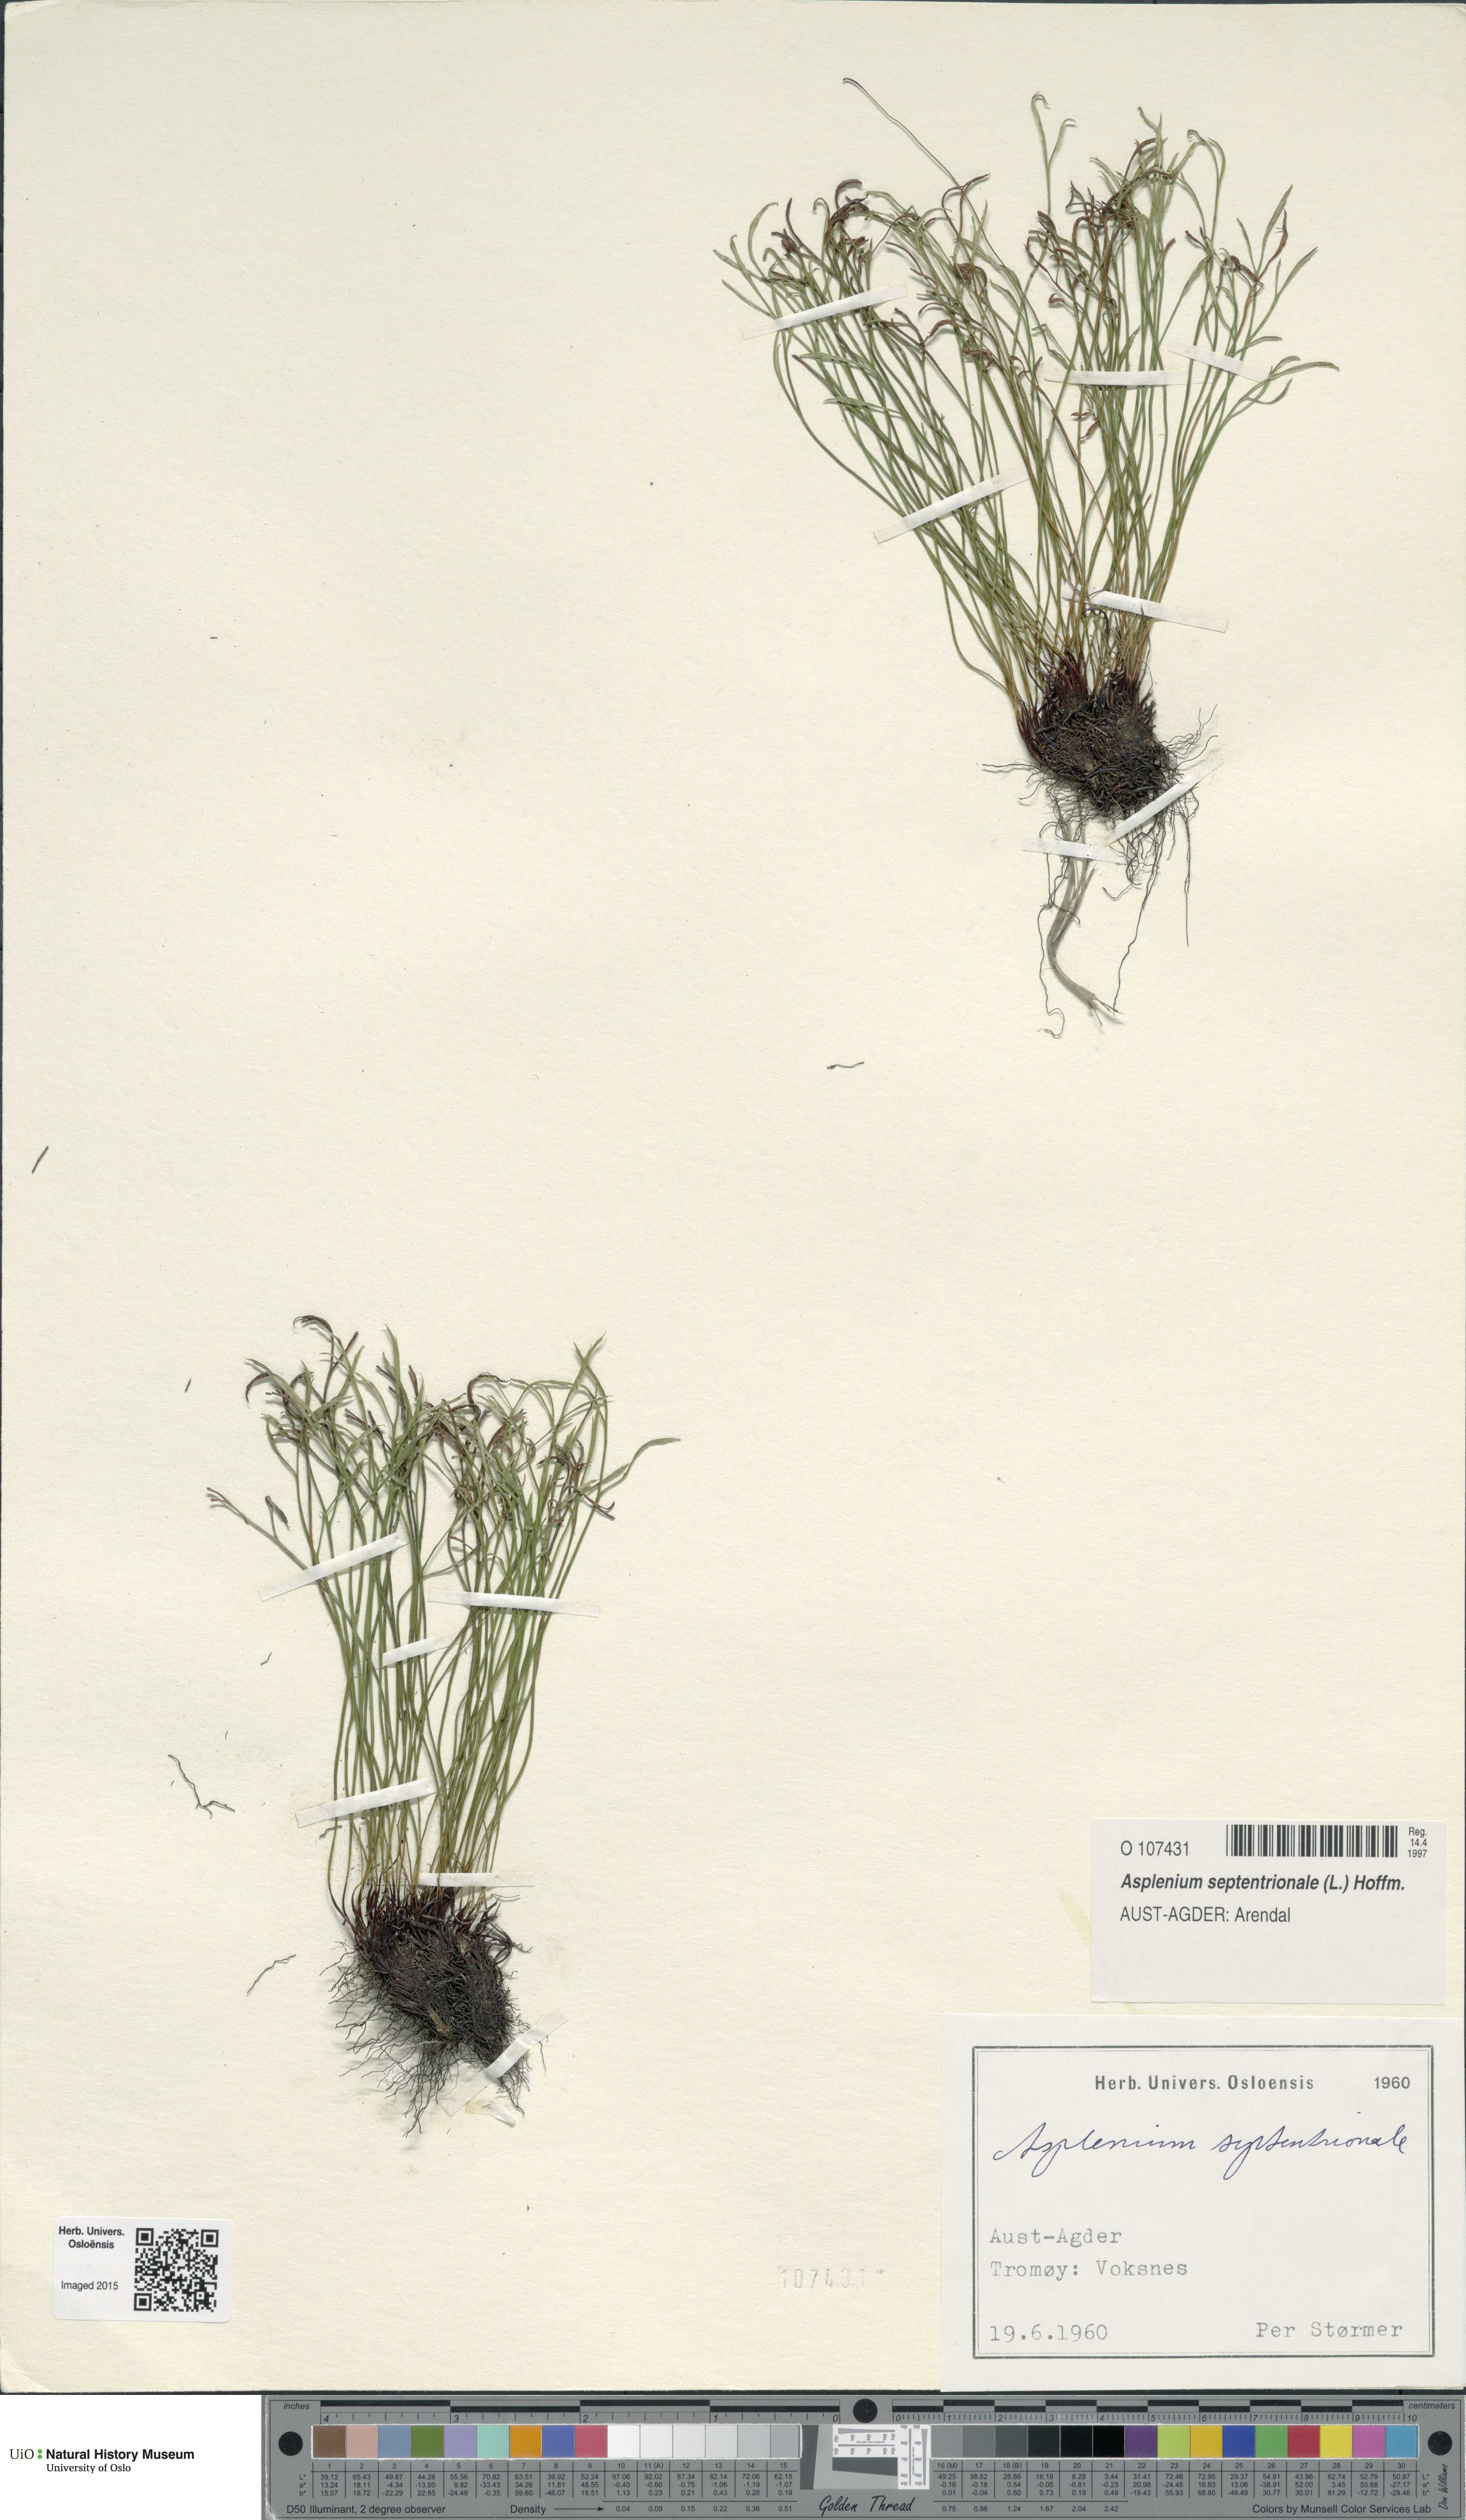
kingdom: Plantae
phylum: Tracheophyta
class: Polypodiopsida
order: Polypodiales
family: Aspleniaceae
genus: Asplenium
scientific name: Asplenium septentrionale
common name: Forked spleenwort
